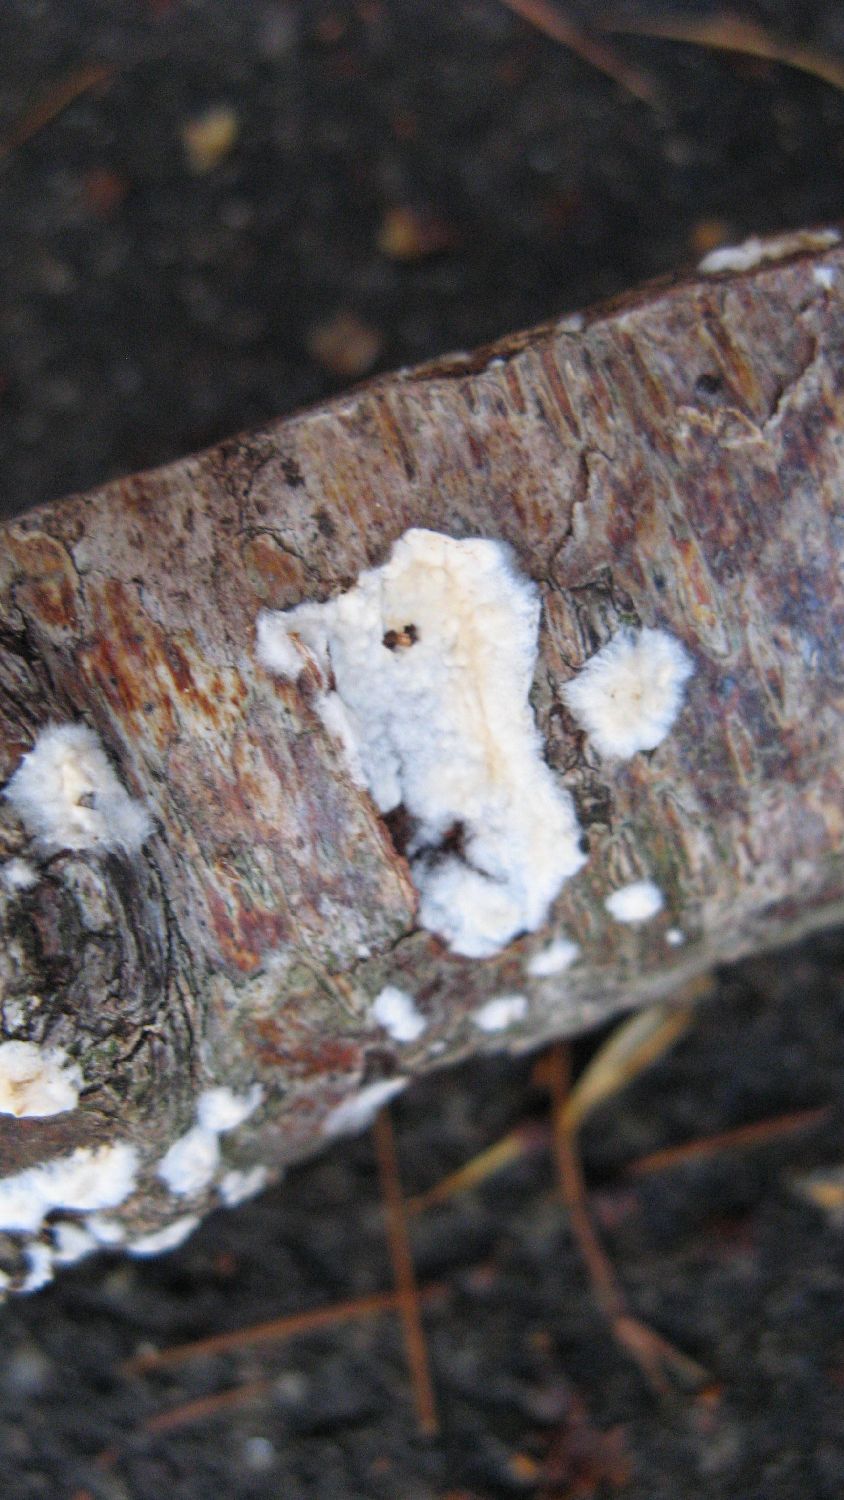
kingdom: Fungi
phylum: Basidiomycota
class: Agaricomycetes
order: Agaricales
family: Physalacriaceae
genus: Cylindrobasidium
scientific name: Cylindrobasidium evolvens
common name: sprækkehinde
